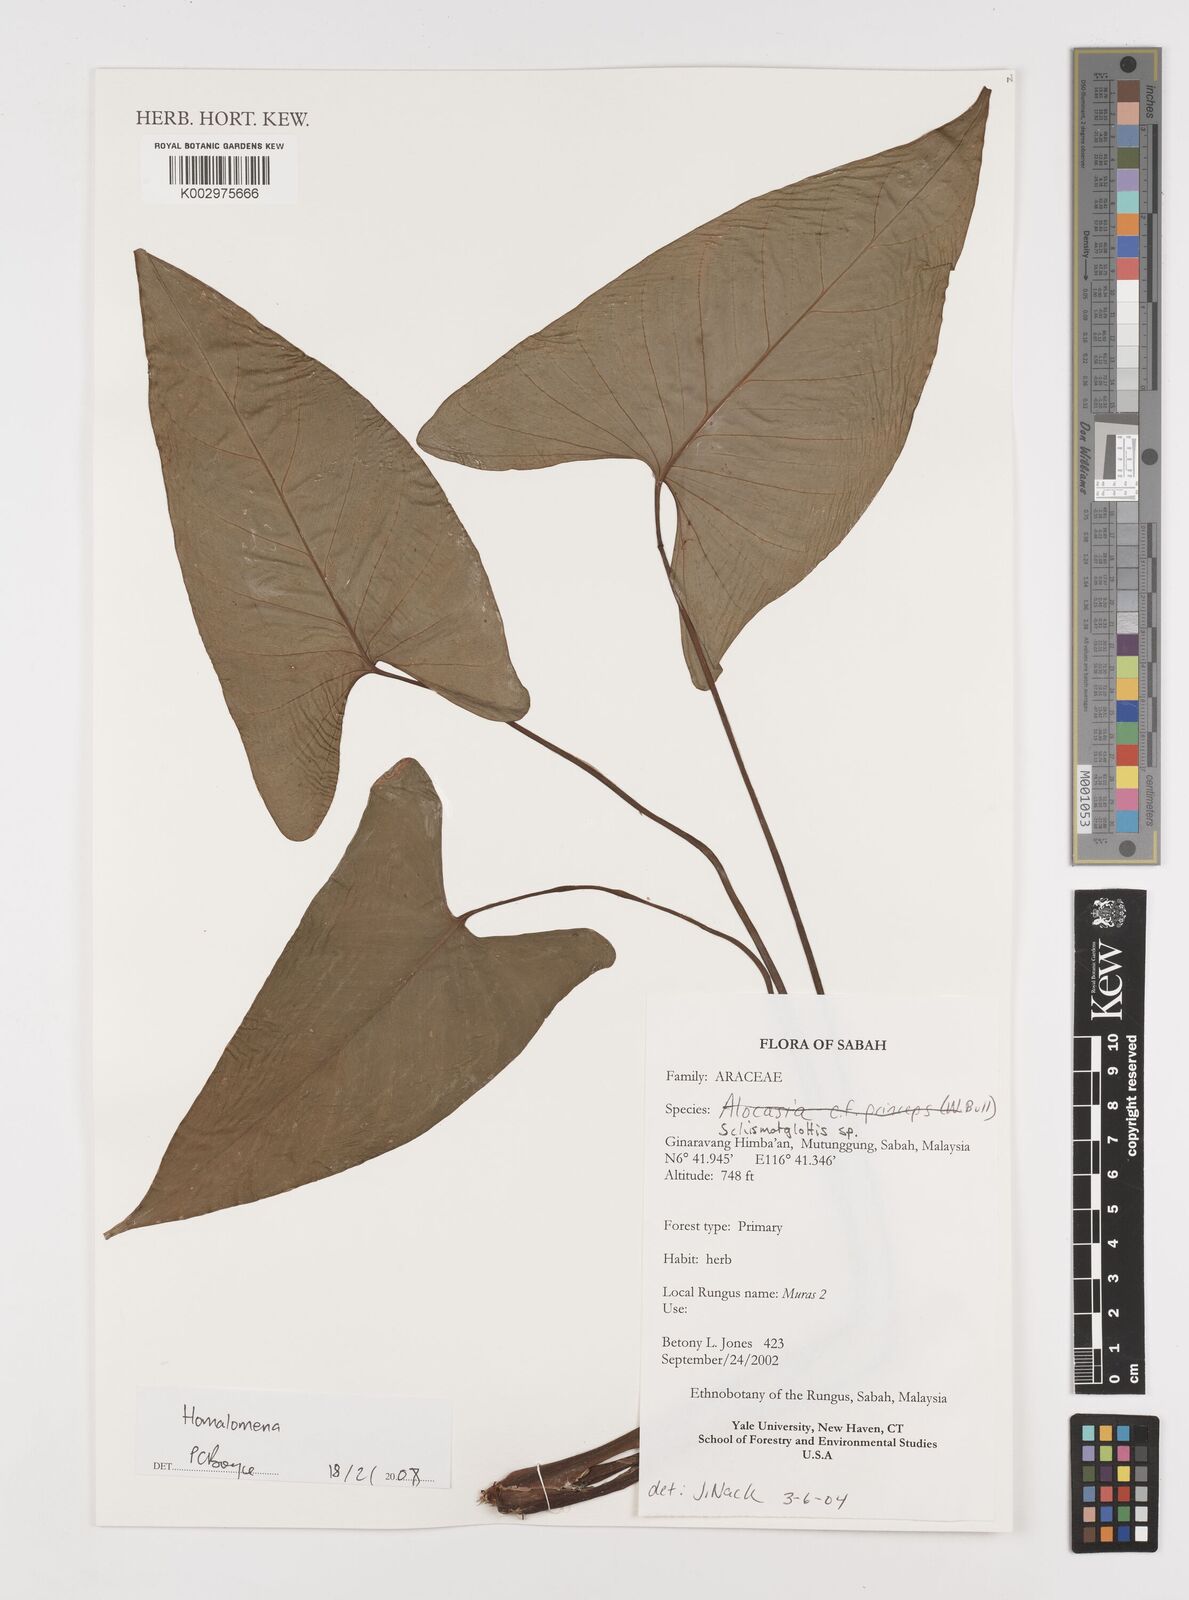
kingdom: Plantae
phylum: Tracheophyta
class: Liliopsida
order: Alismatales
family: Araceae
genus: Homalomena
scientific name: Homalomena
